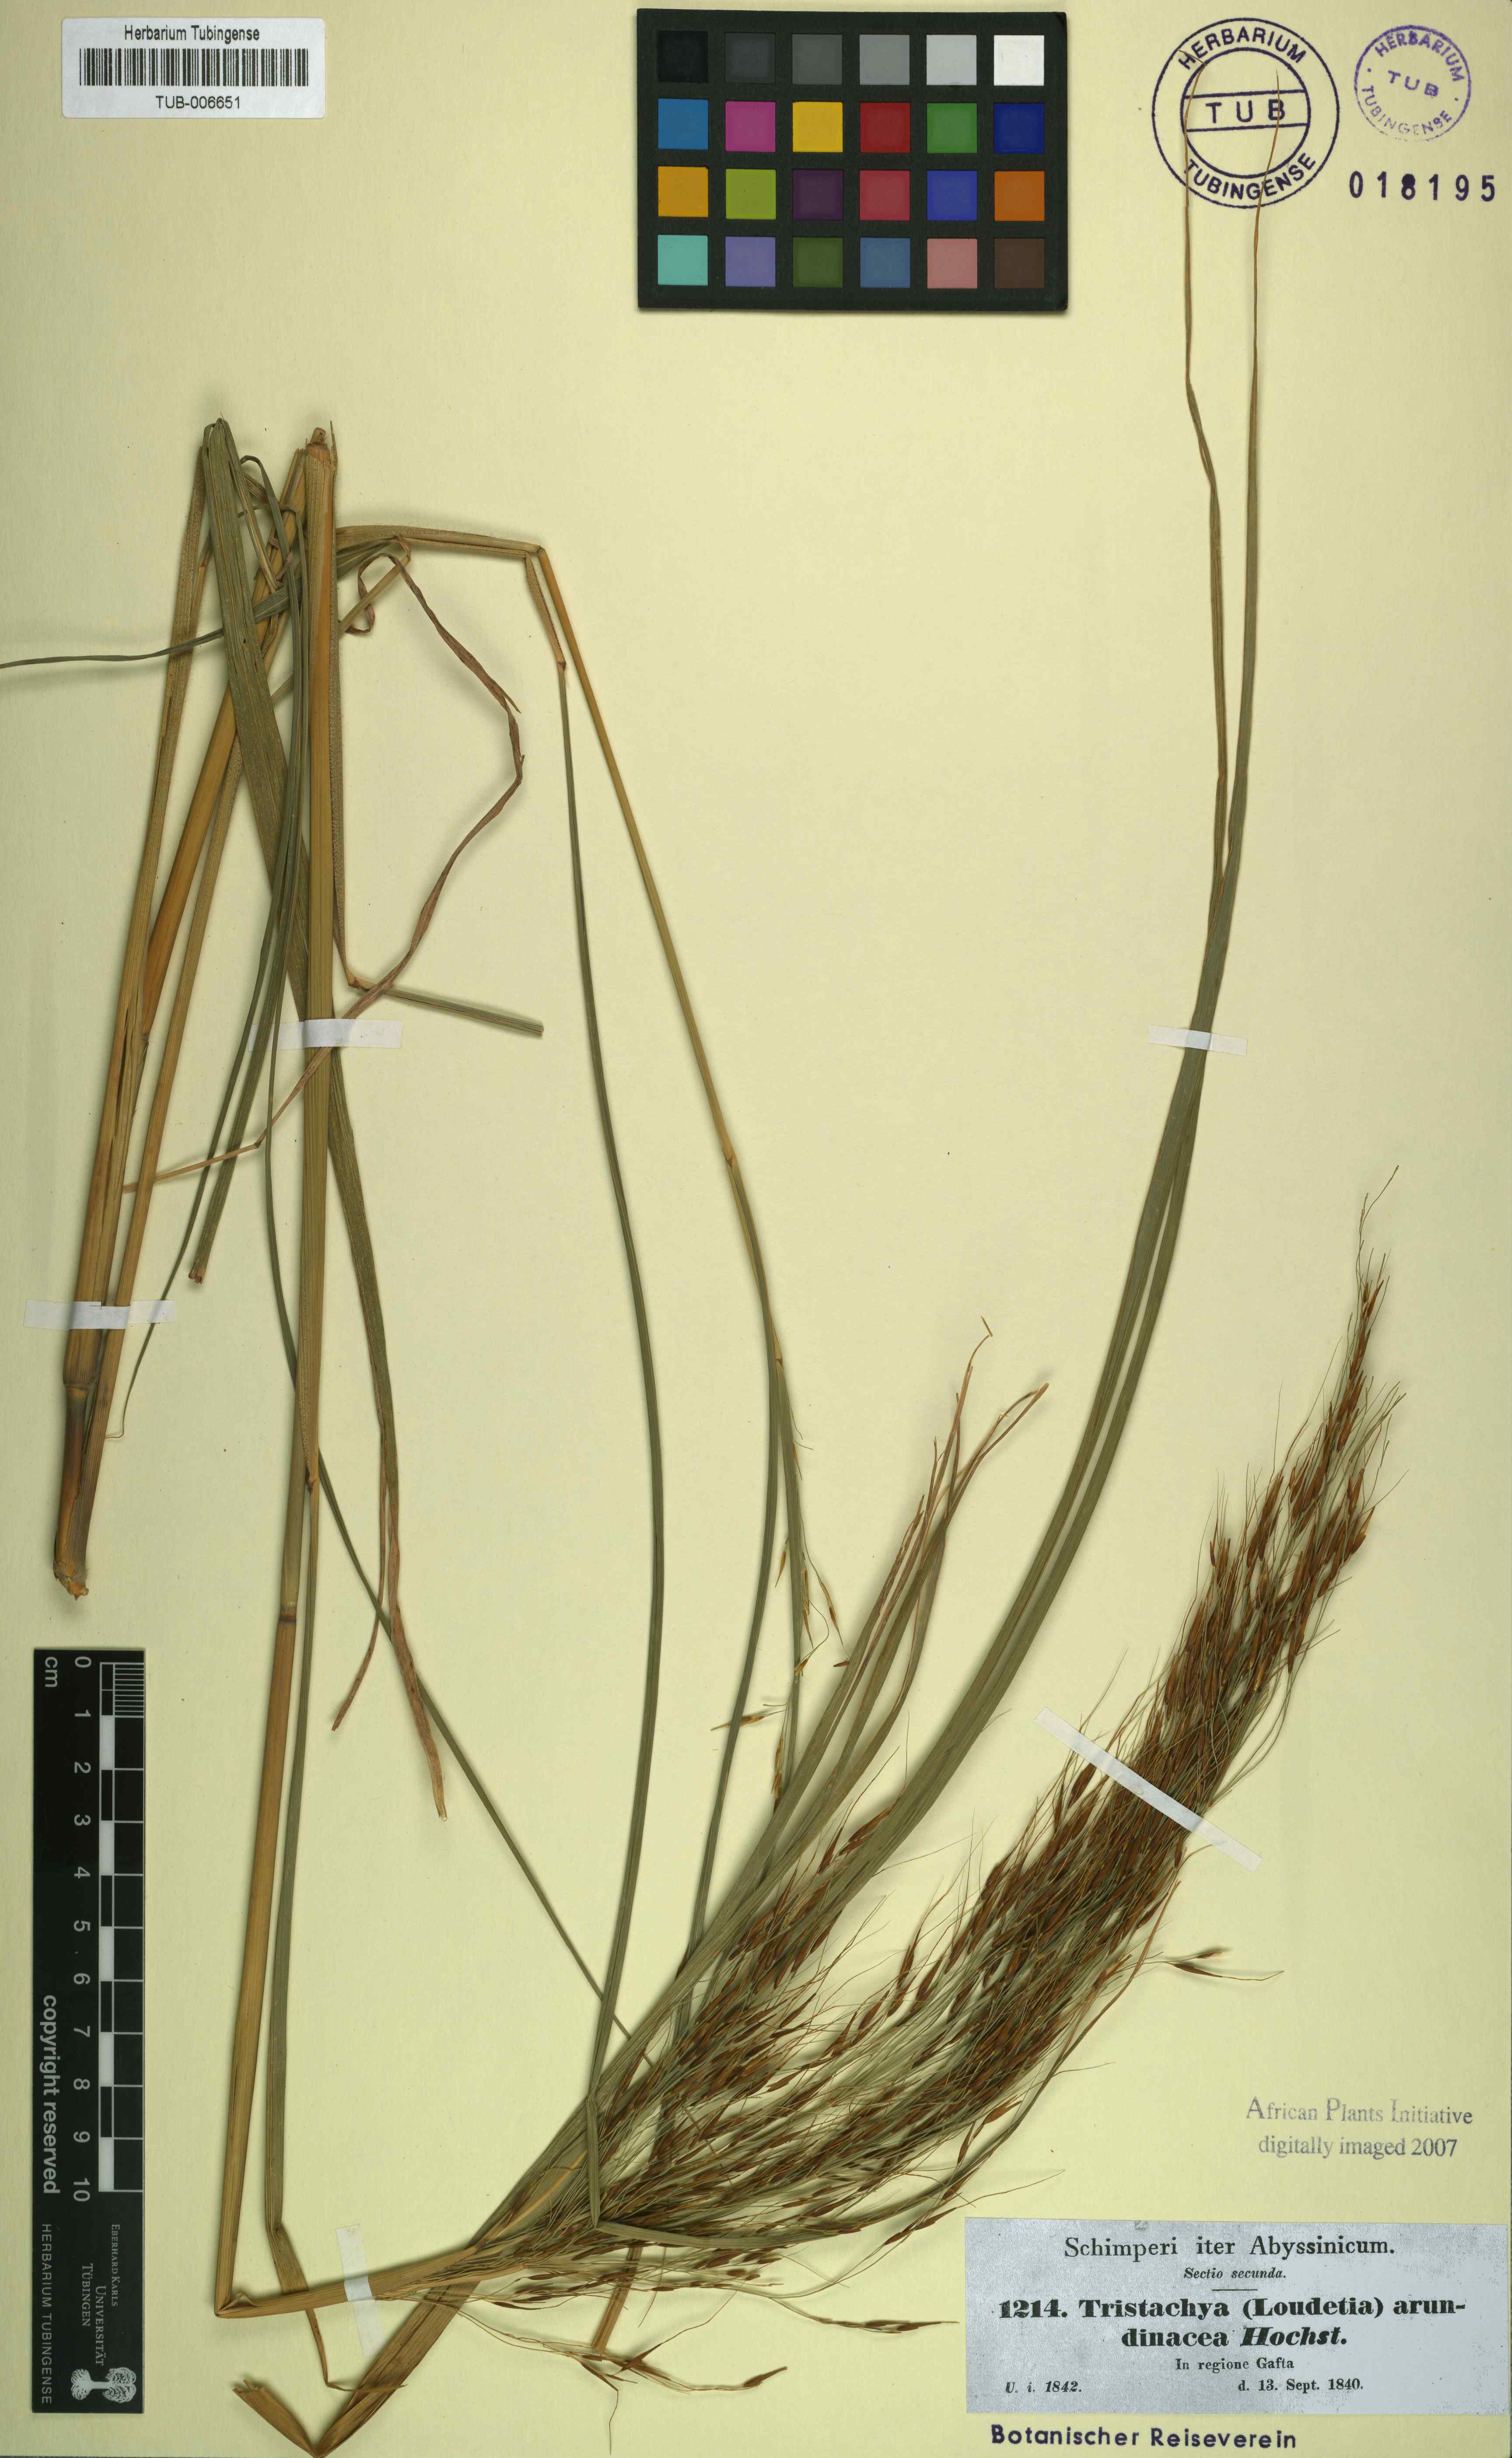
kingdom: Plantae
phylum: Tracheophyta
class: Liliopsida
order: Poales
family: Poaceae
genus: Loudetia
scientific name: Loudetia arundinacea
